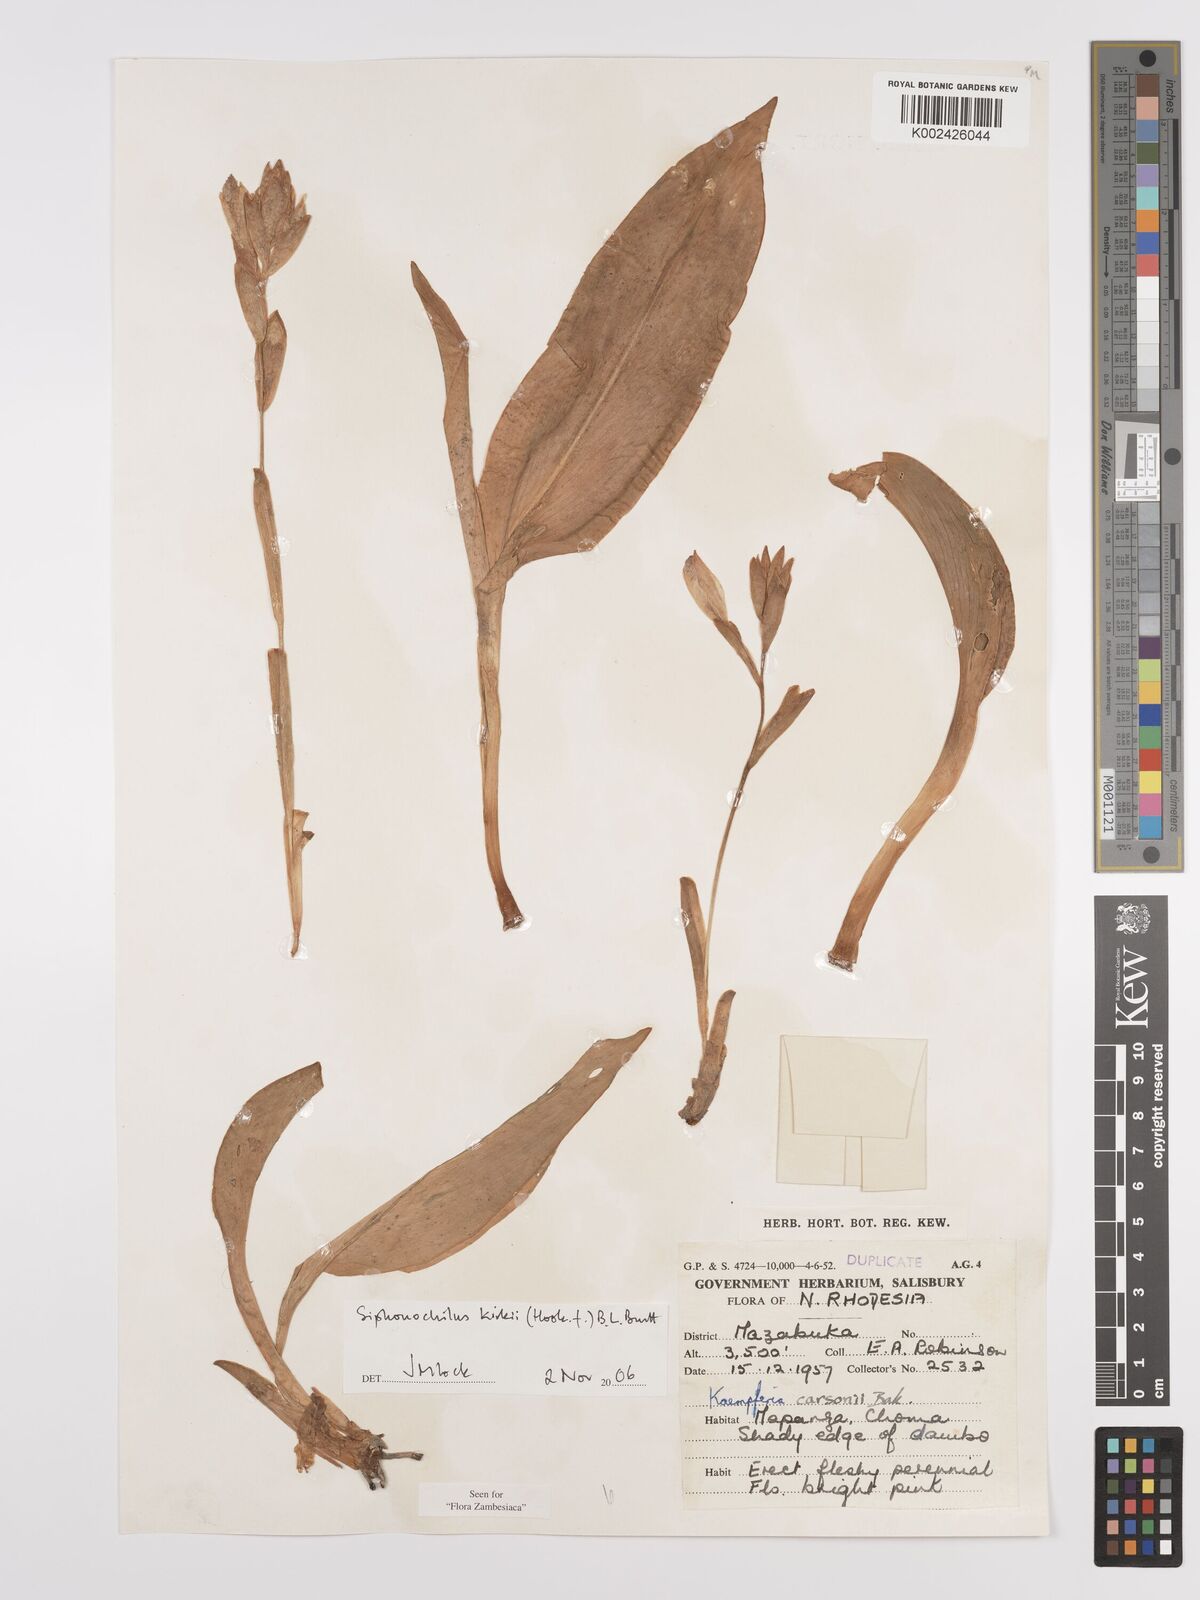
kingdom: Plantae
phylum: Tracheophyta
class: Liliopsida
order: Zingiberales
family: Zingiberaceae
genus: Siphonochilus
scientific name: Siphonochilus kirkii
